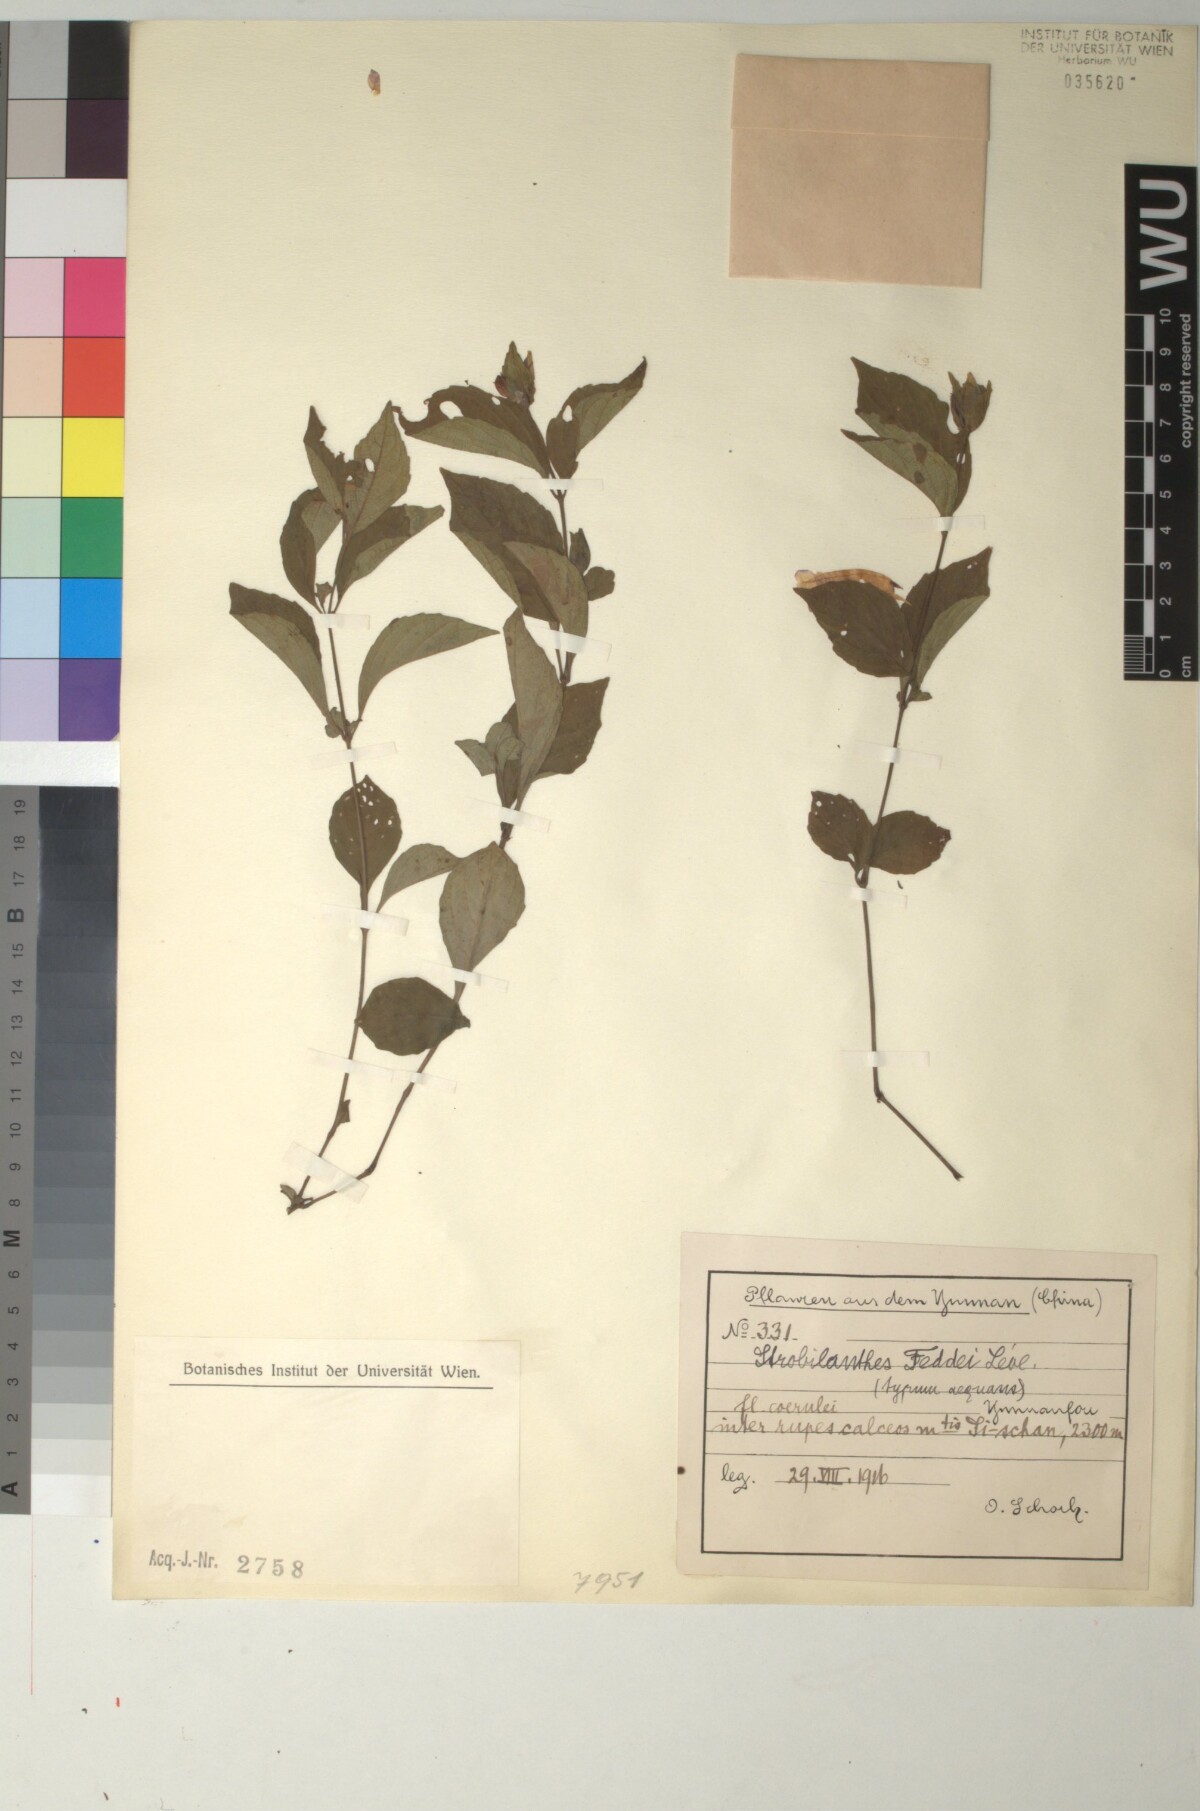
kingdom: Plantae
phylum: Tracheophyta
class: Magnoliopsida
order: Lamiales
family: Acanthaceae
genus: Strobilanthes
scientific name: Strobilanthes lamiifolia
